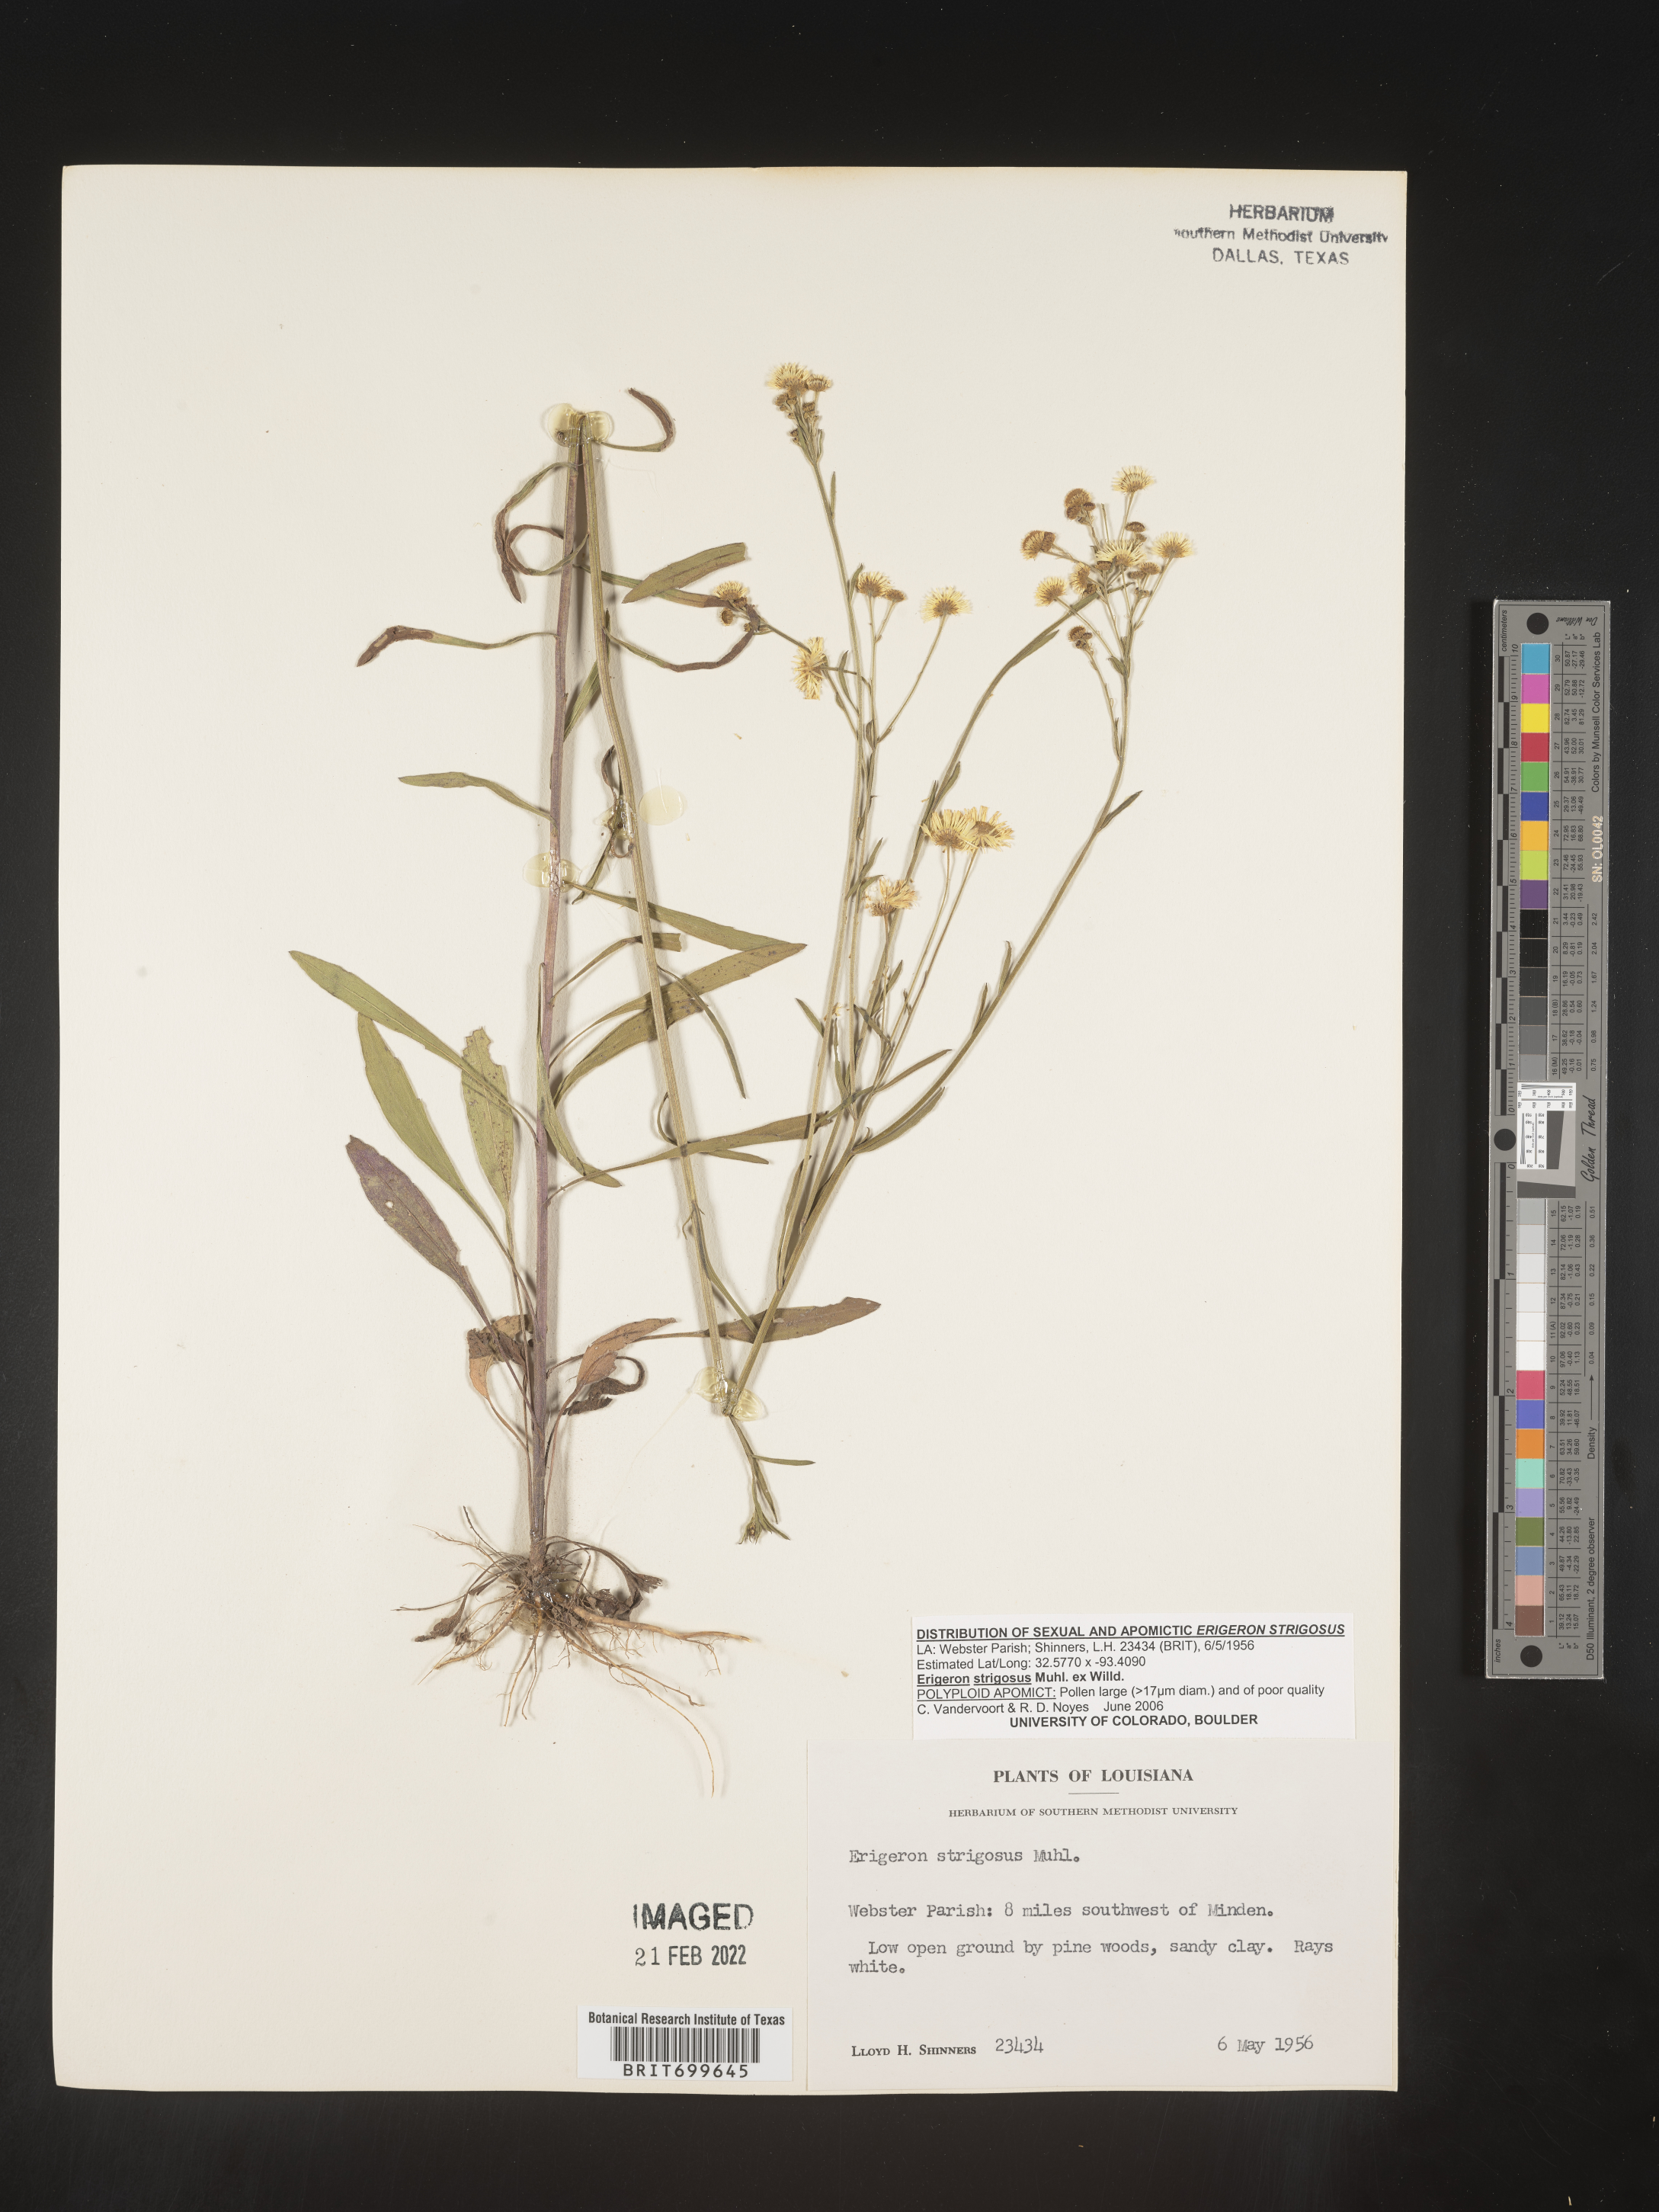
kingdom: Plantae
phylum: Tracheophyta
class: Magnoliopsida
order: Asterales
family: Asteraceae
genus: Erigeron
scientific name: Erigeron strigosus
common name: Common eastern fleabane
